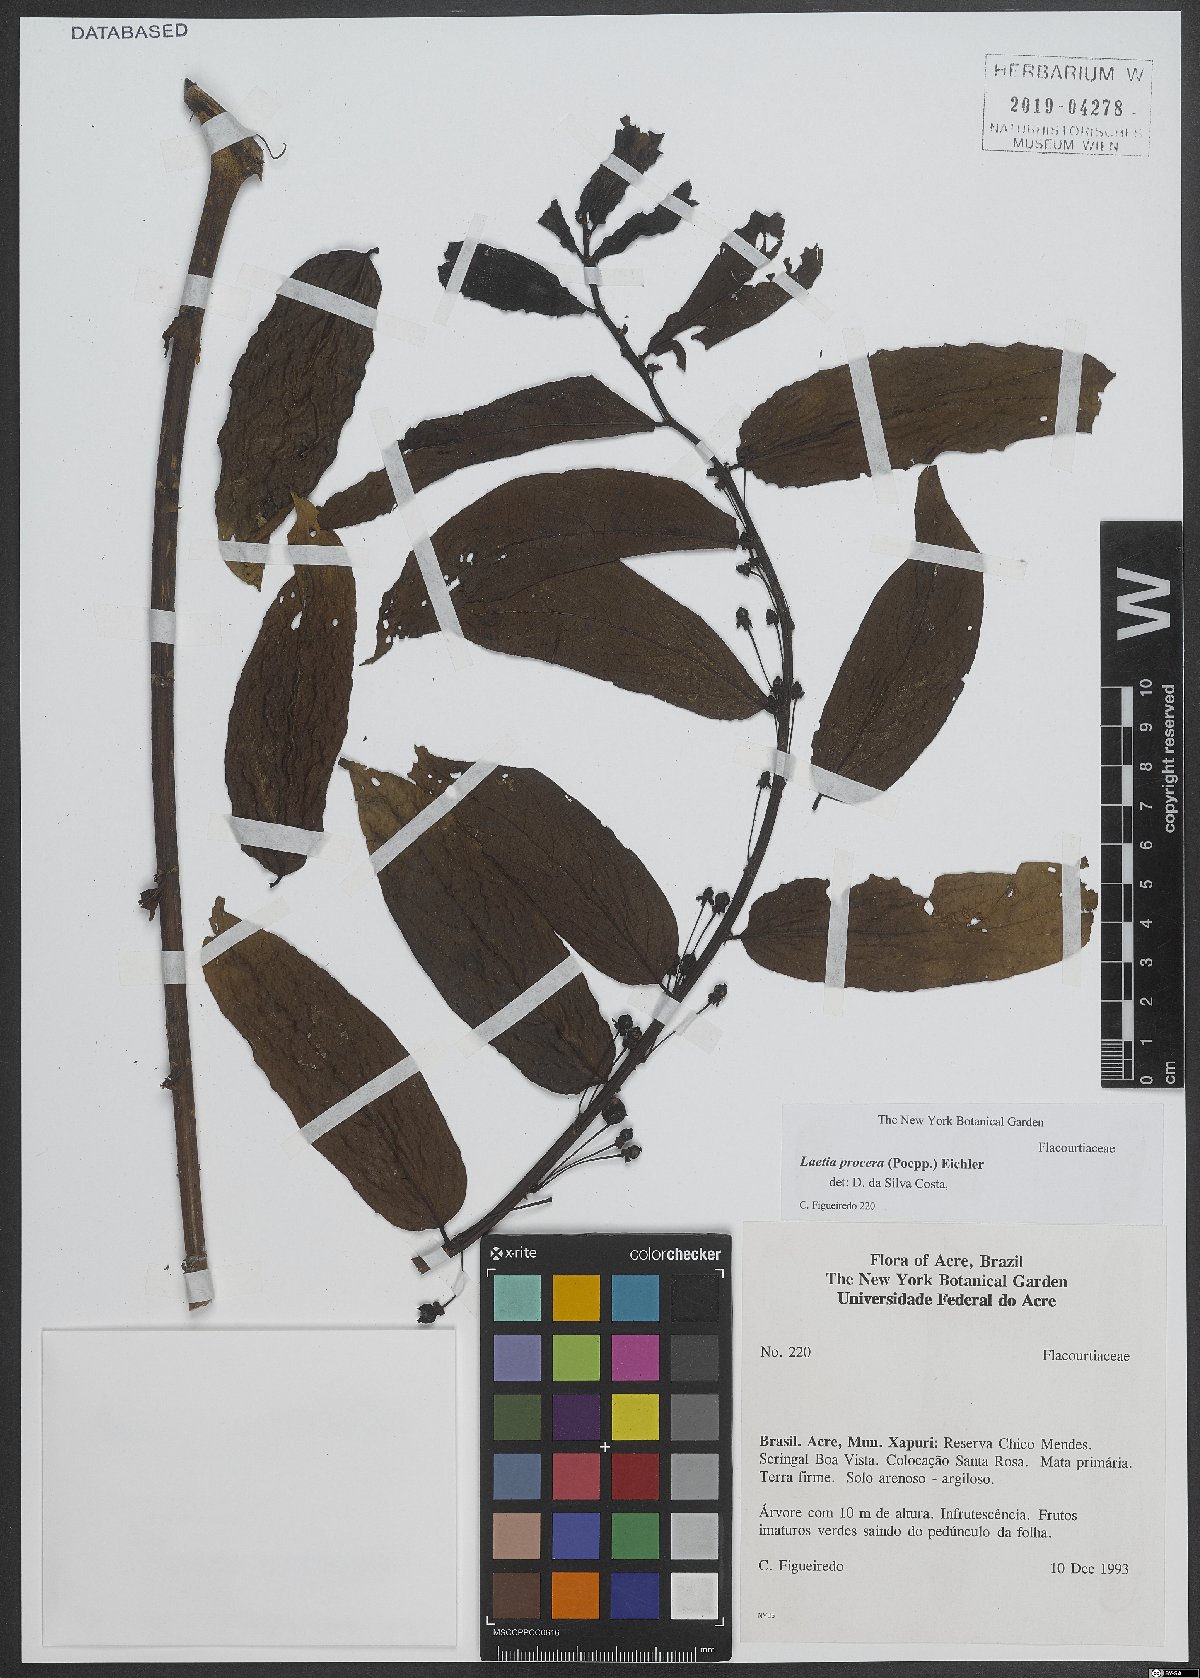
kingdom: Plantae
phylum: Tracheophyta
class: Magnoliopsida
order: Malpighiales
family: Salicaceae
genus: Casearia
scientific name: Casearia bicolor
